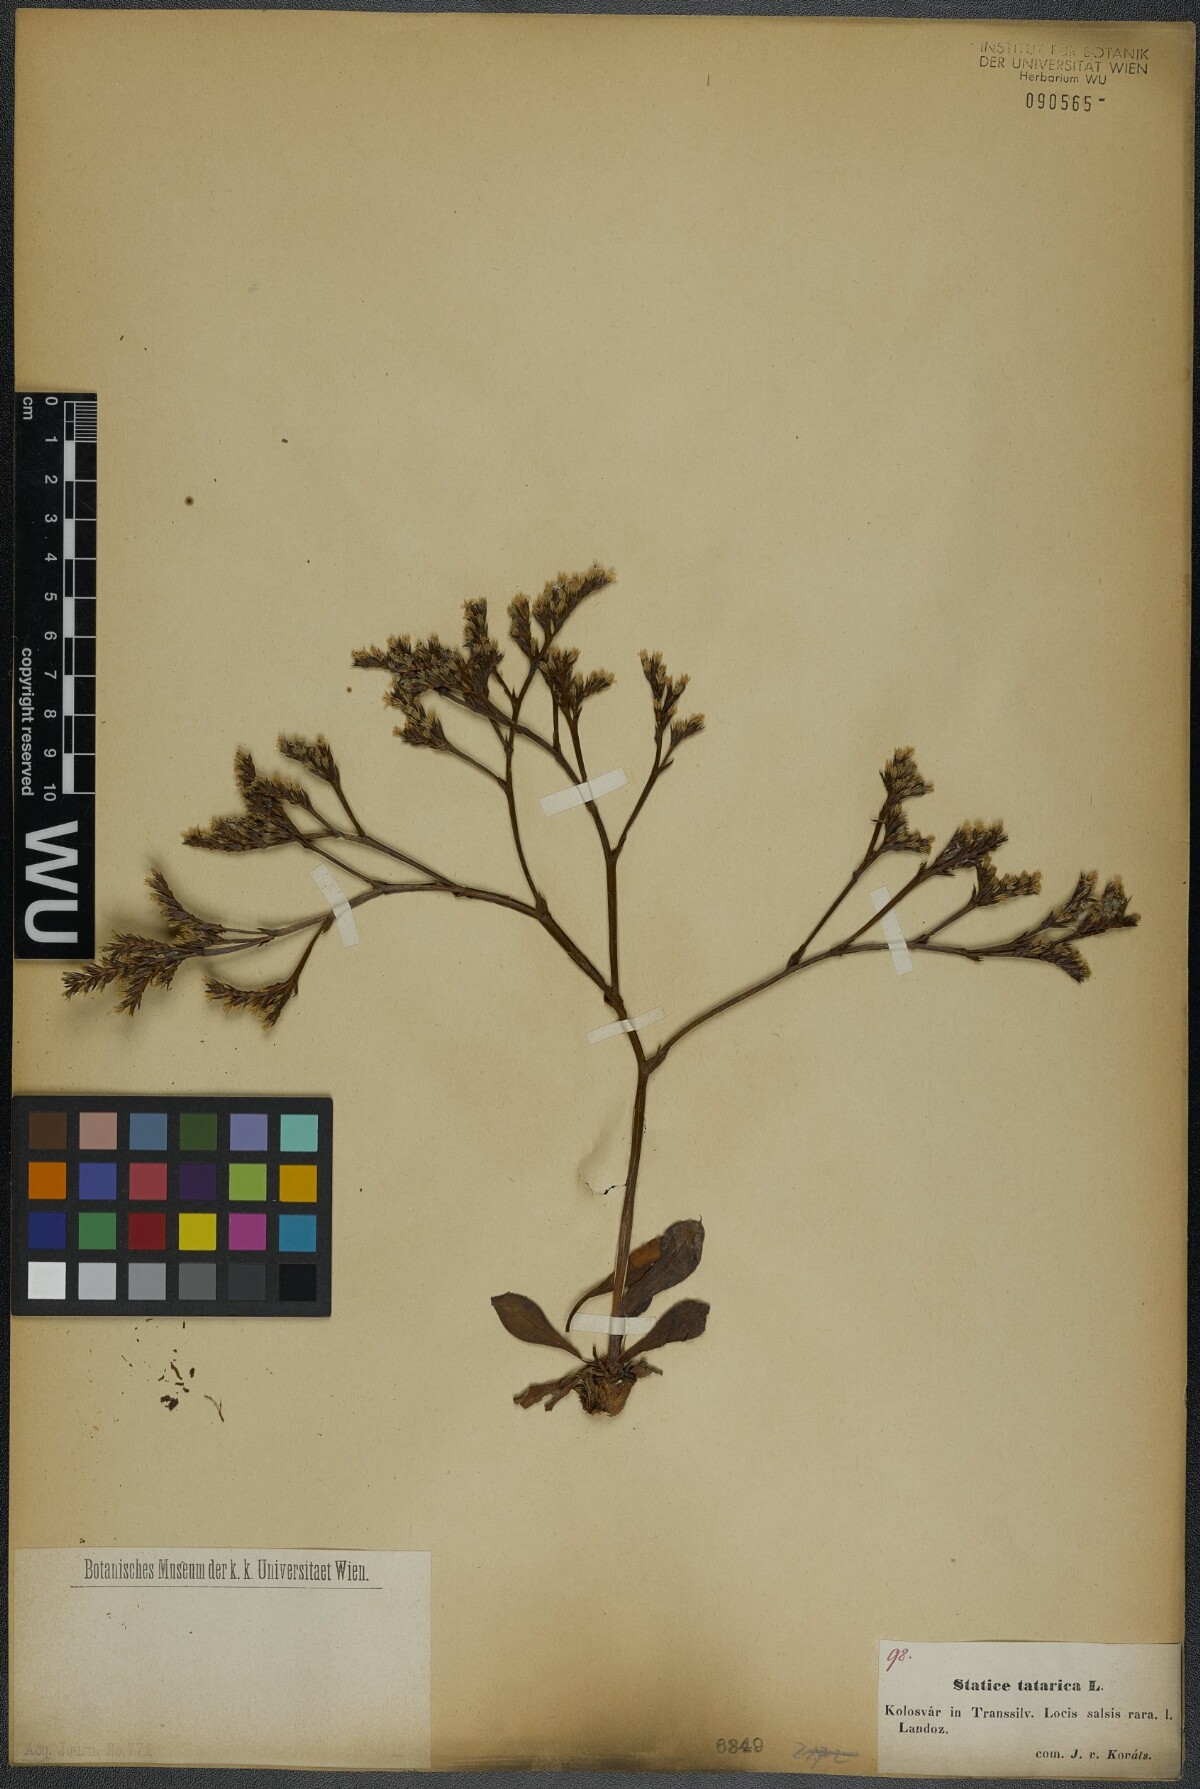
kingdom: Plantae
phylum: Tracheophyta
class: Magnoliopsida
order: Caryophyllales
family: Plumbaginaceae
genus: Goniolimon
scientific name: Goniolimon tataricum
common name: Statice
